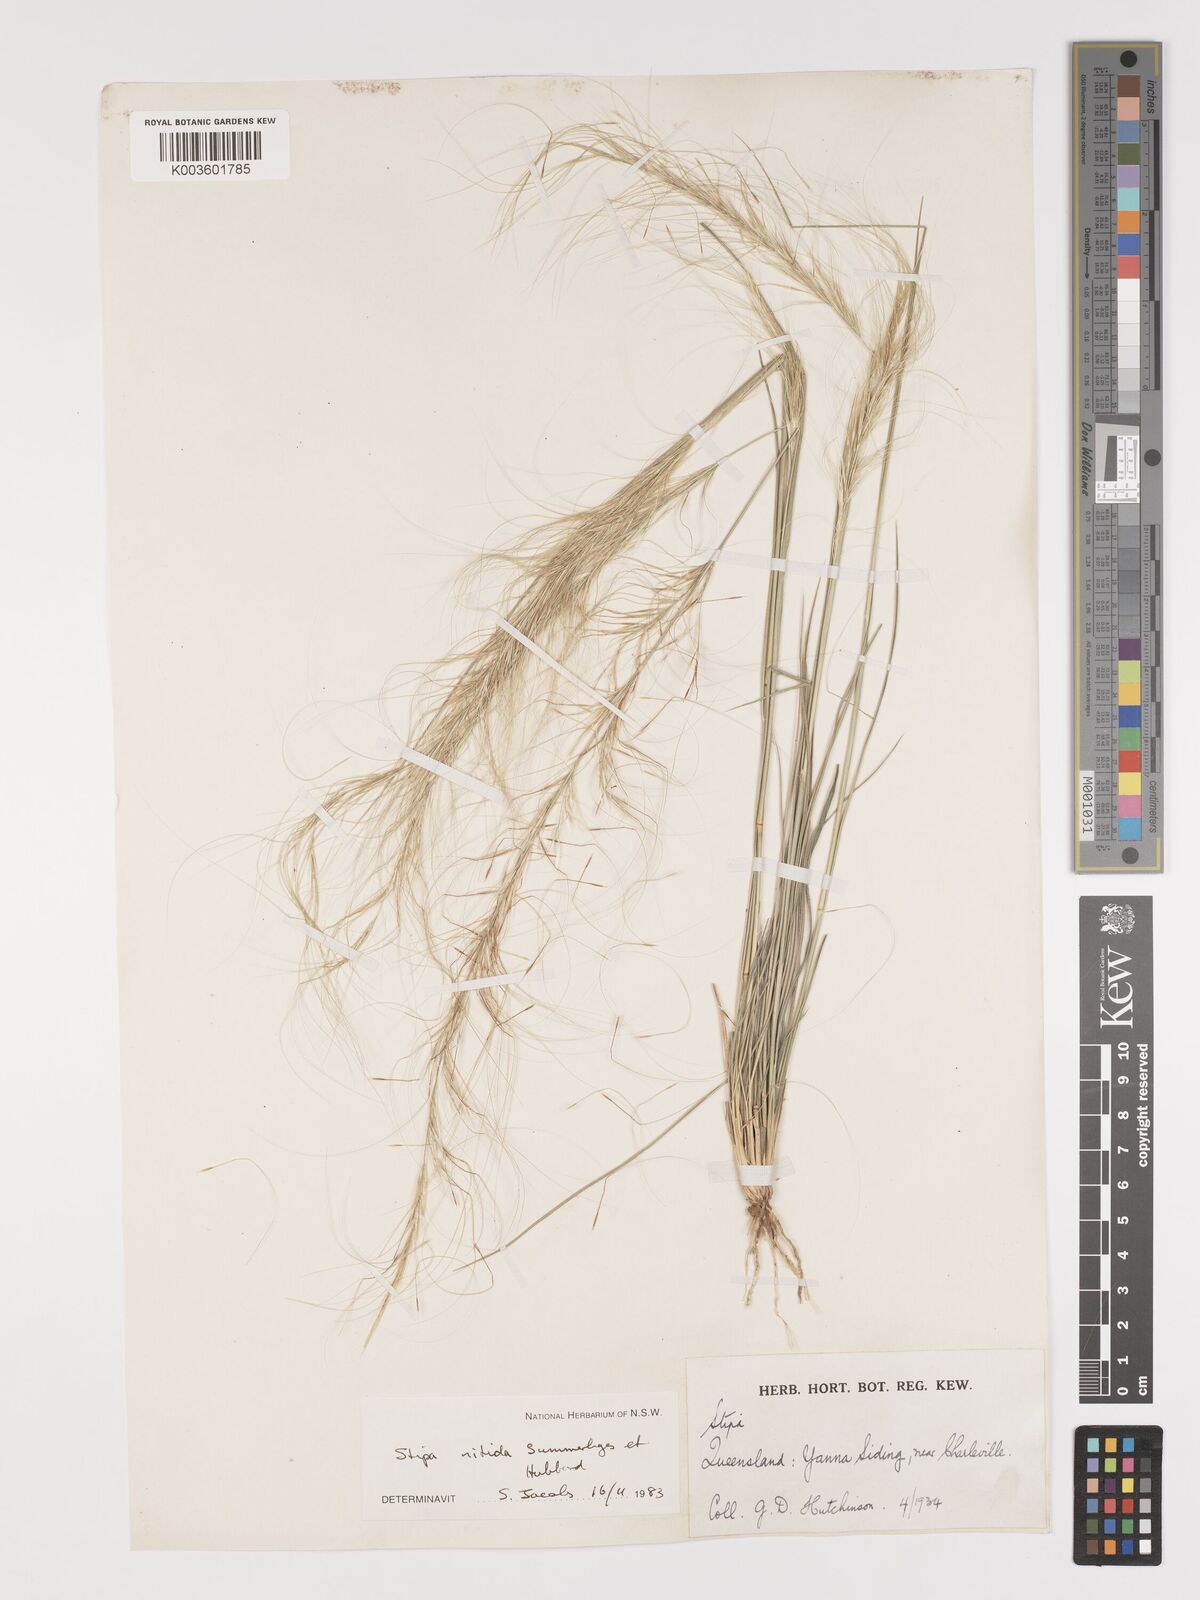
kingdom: Plantae
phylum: Tracheophyta
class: Liliopsida
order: Poales
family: Poaceae
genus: Austrostipa
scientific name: Austrostipa nitida
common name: Balcarra grass
